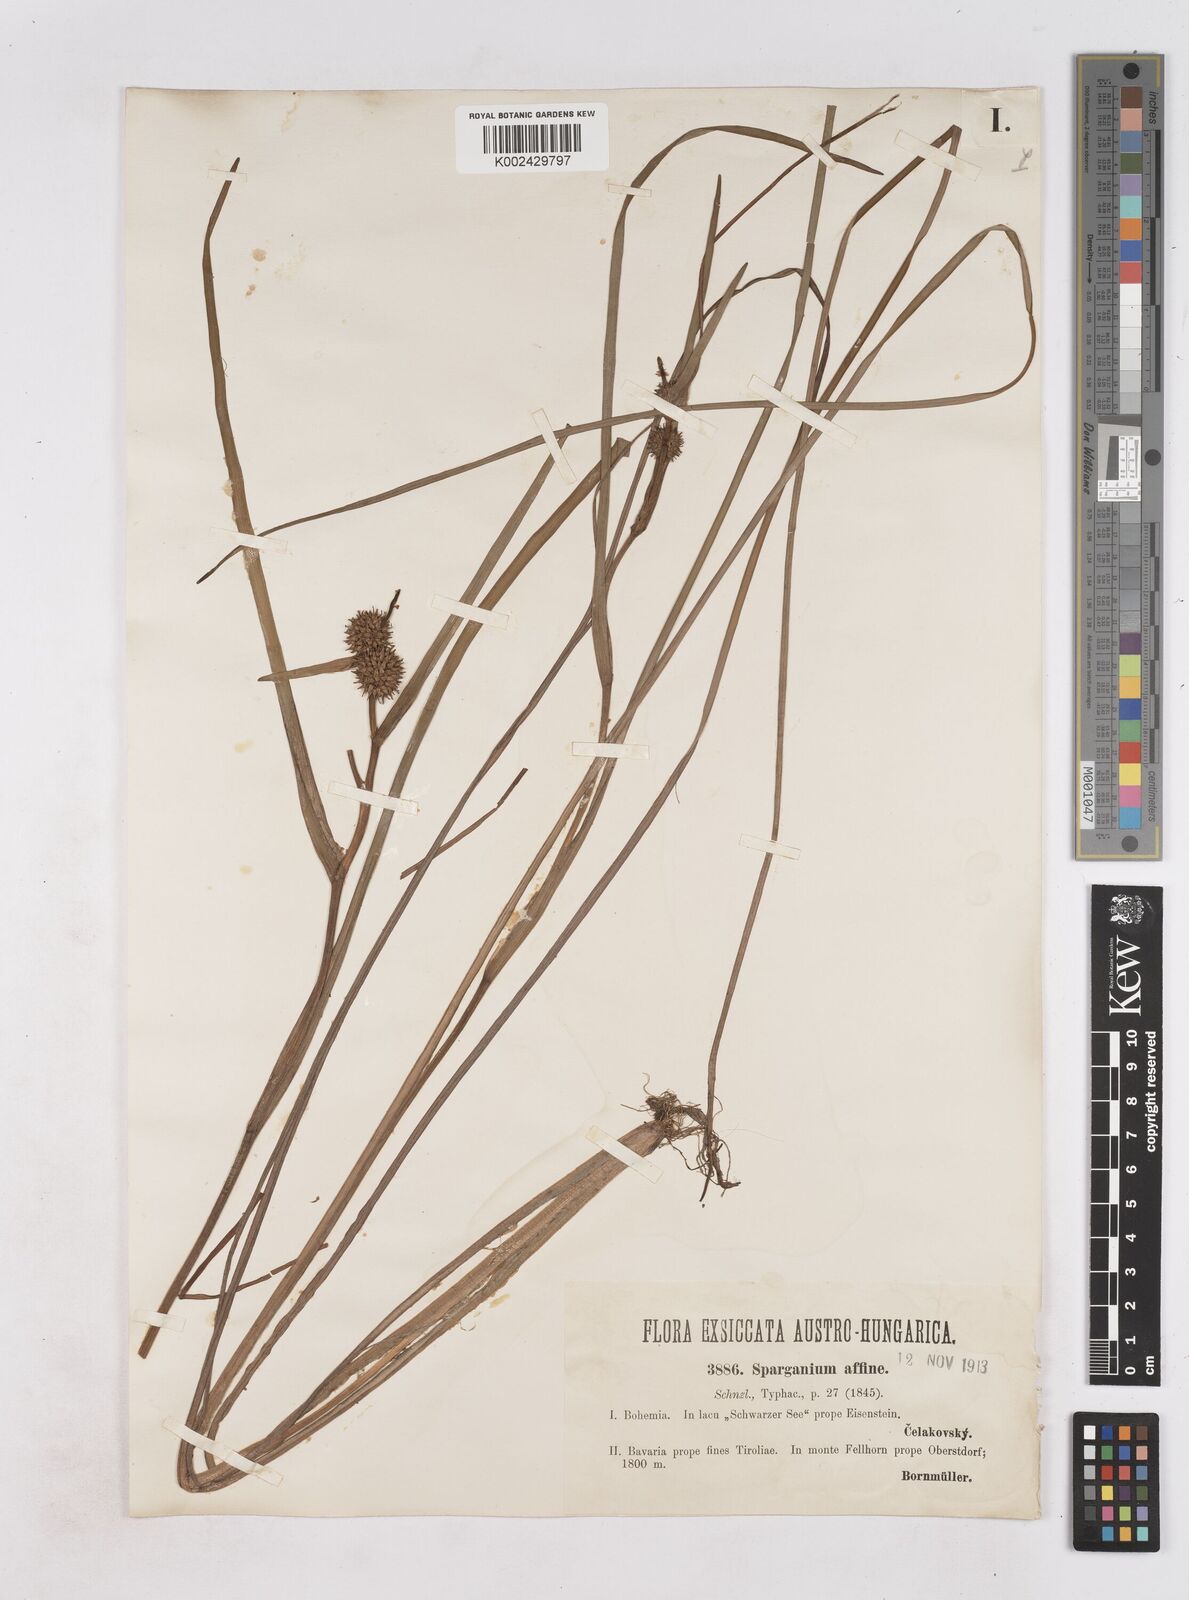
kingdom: Plantae
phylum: Tracheophyta
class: Liliopsida
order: Poales
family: Typhaceae
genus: Sparganium
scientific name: Sparganium angustifolium
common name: Floating bur-reed
